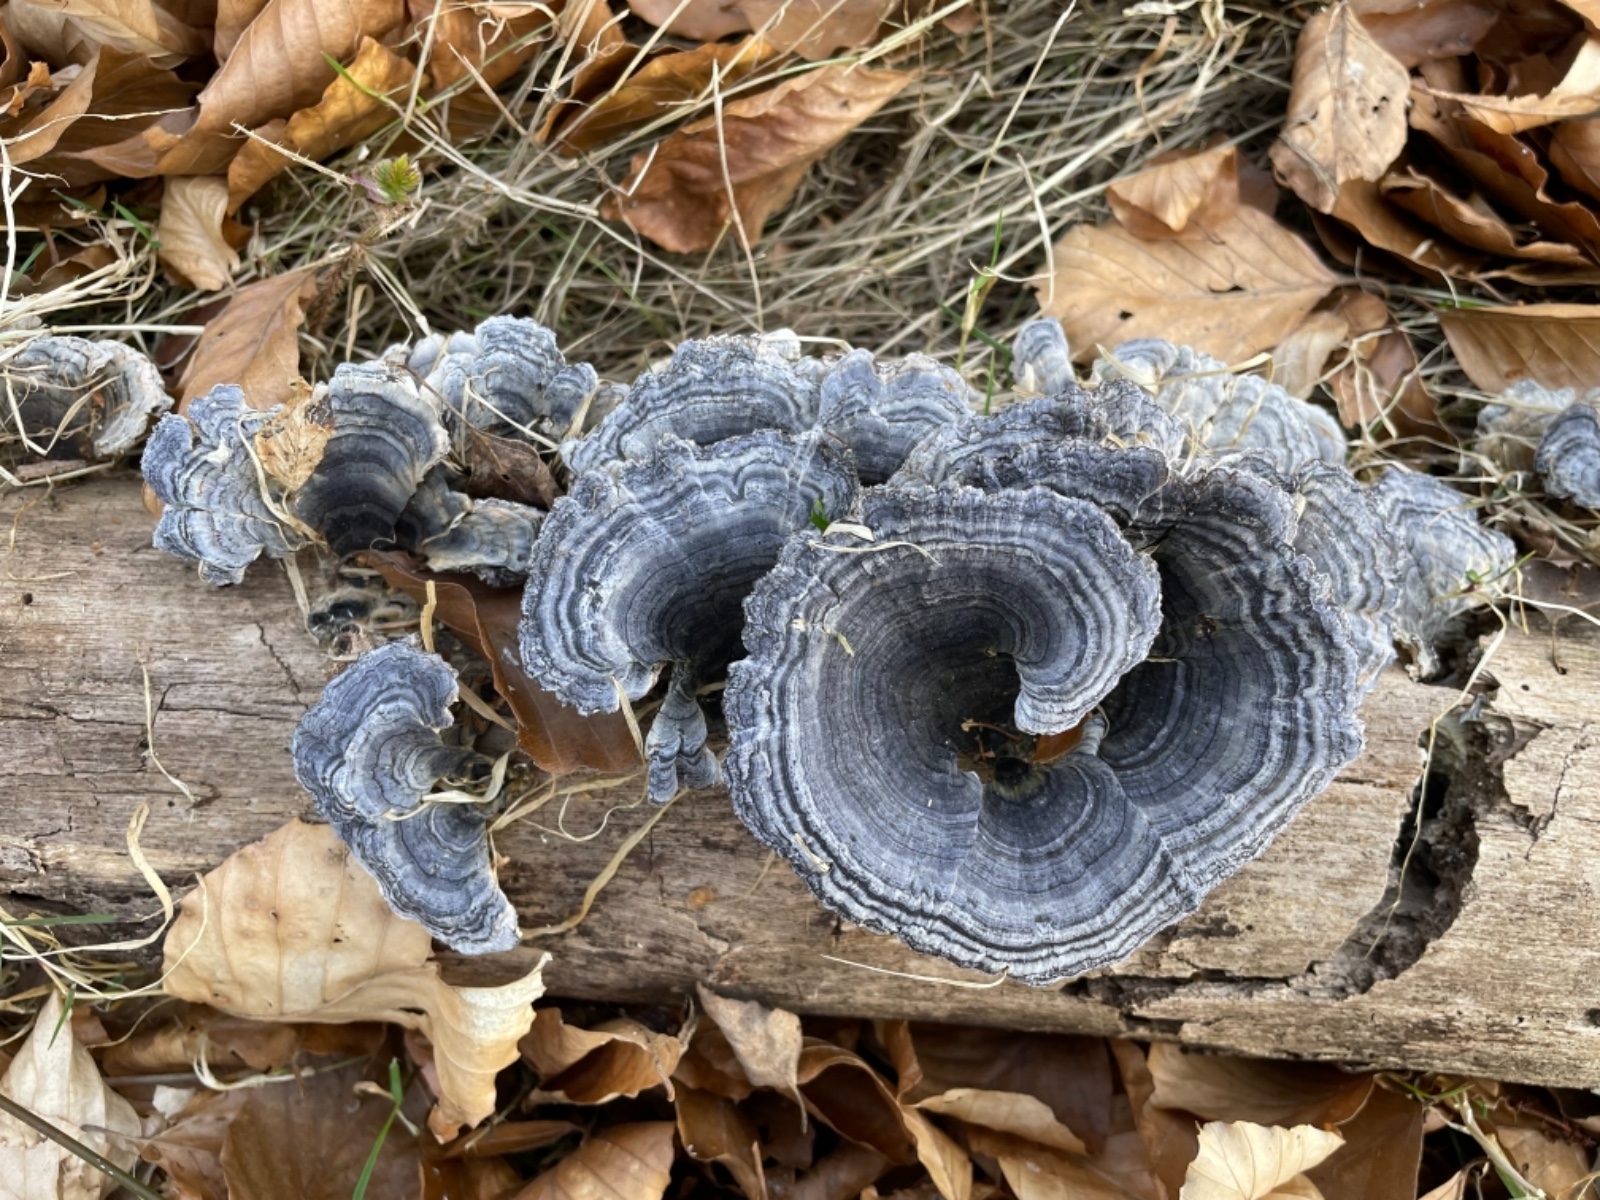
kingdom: Fungi
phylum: Basidiomycota
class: Agaricomycetes
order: Polyporales
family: Polyporaceae
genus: Trametes
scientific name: Trametes versicolor
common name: broget læderporesvamp
